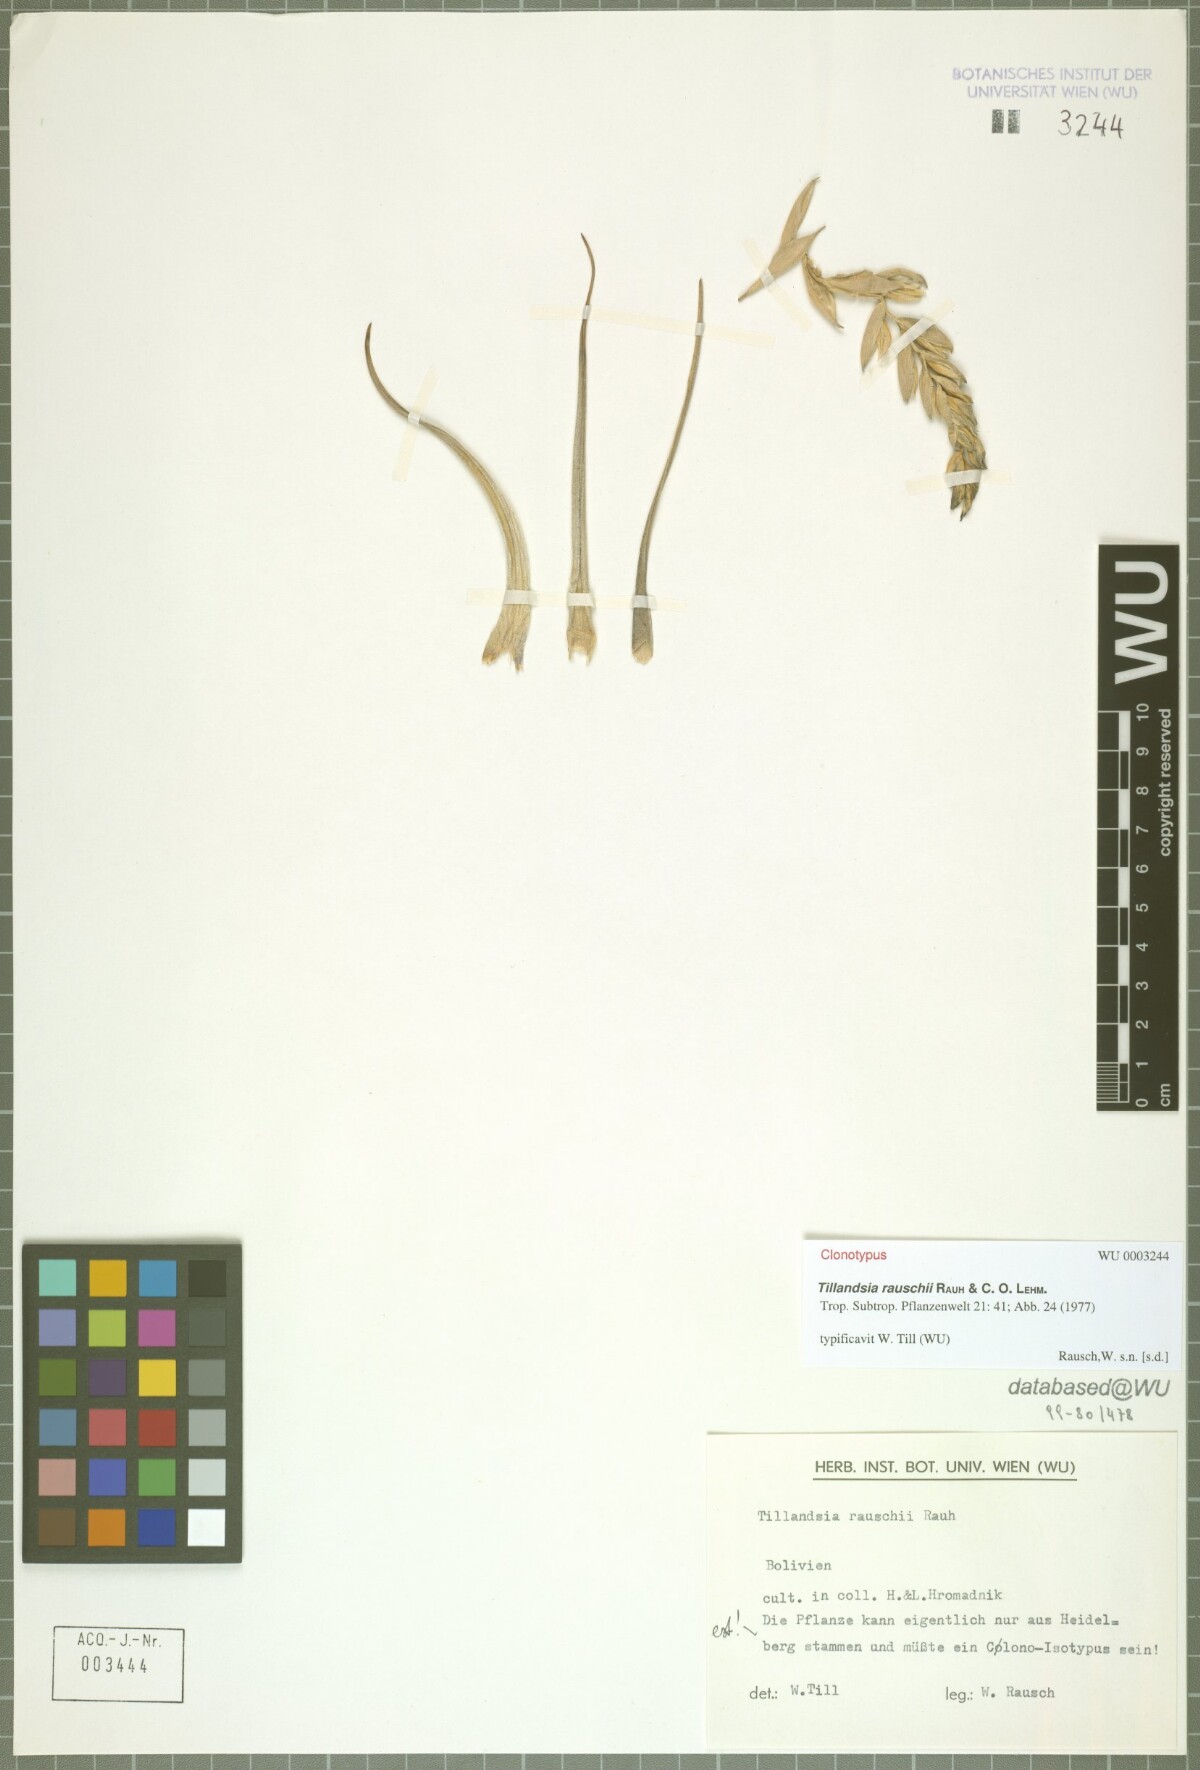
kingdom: Plantae
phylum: Tracheophyta
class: Liliopsida
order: Poales
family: Bromeliaceae
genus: Tillandsia
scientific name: Tillandsia rauschii
